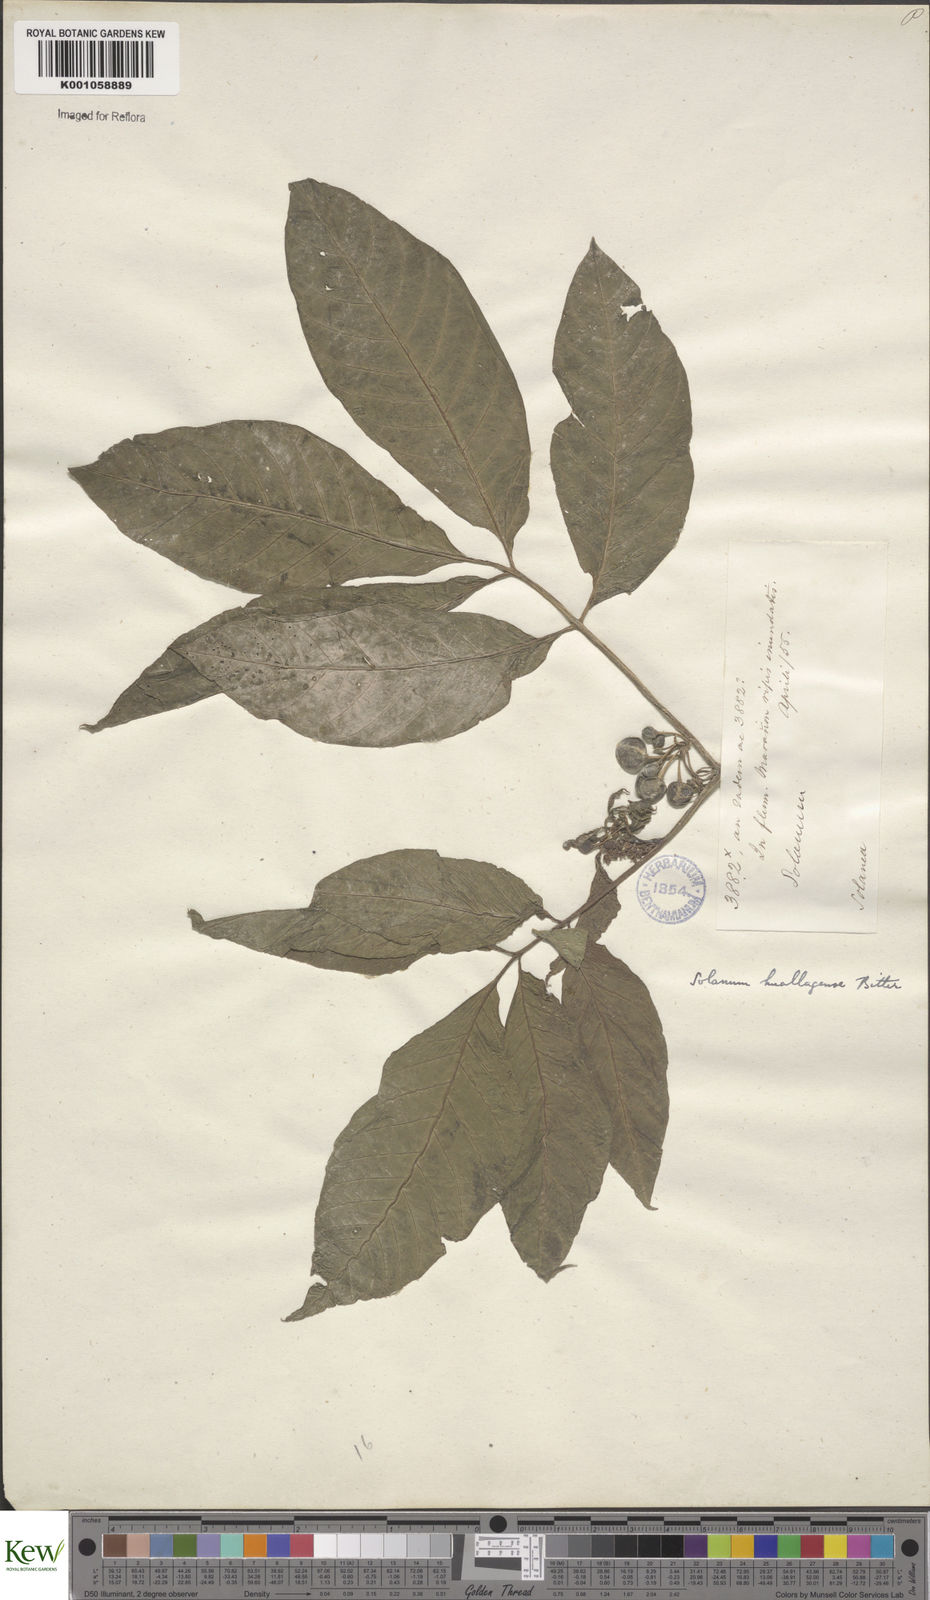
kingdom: Plantae
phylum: Tracheophyta
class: Magnoliopsida
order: Solanales
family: Solanaceae
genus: Solanum
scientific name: Solanum
